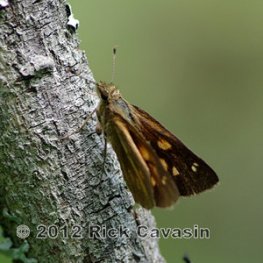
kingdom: Animalia
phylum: Arthropoda
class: Insecta
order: Lepidoptera
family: Hesperiidae
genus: Poanes
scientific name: Poanes viator
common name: Broad-winged Skipper
